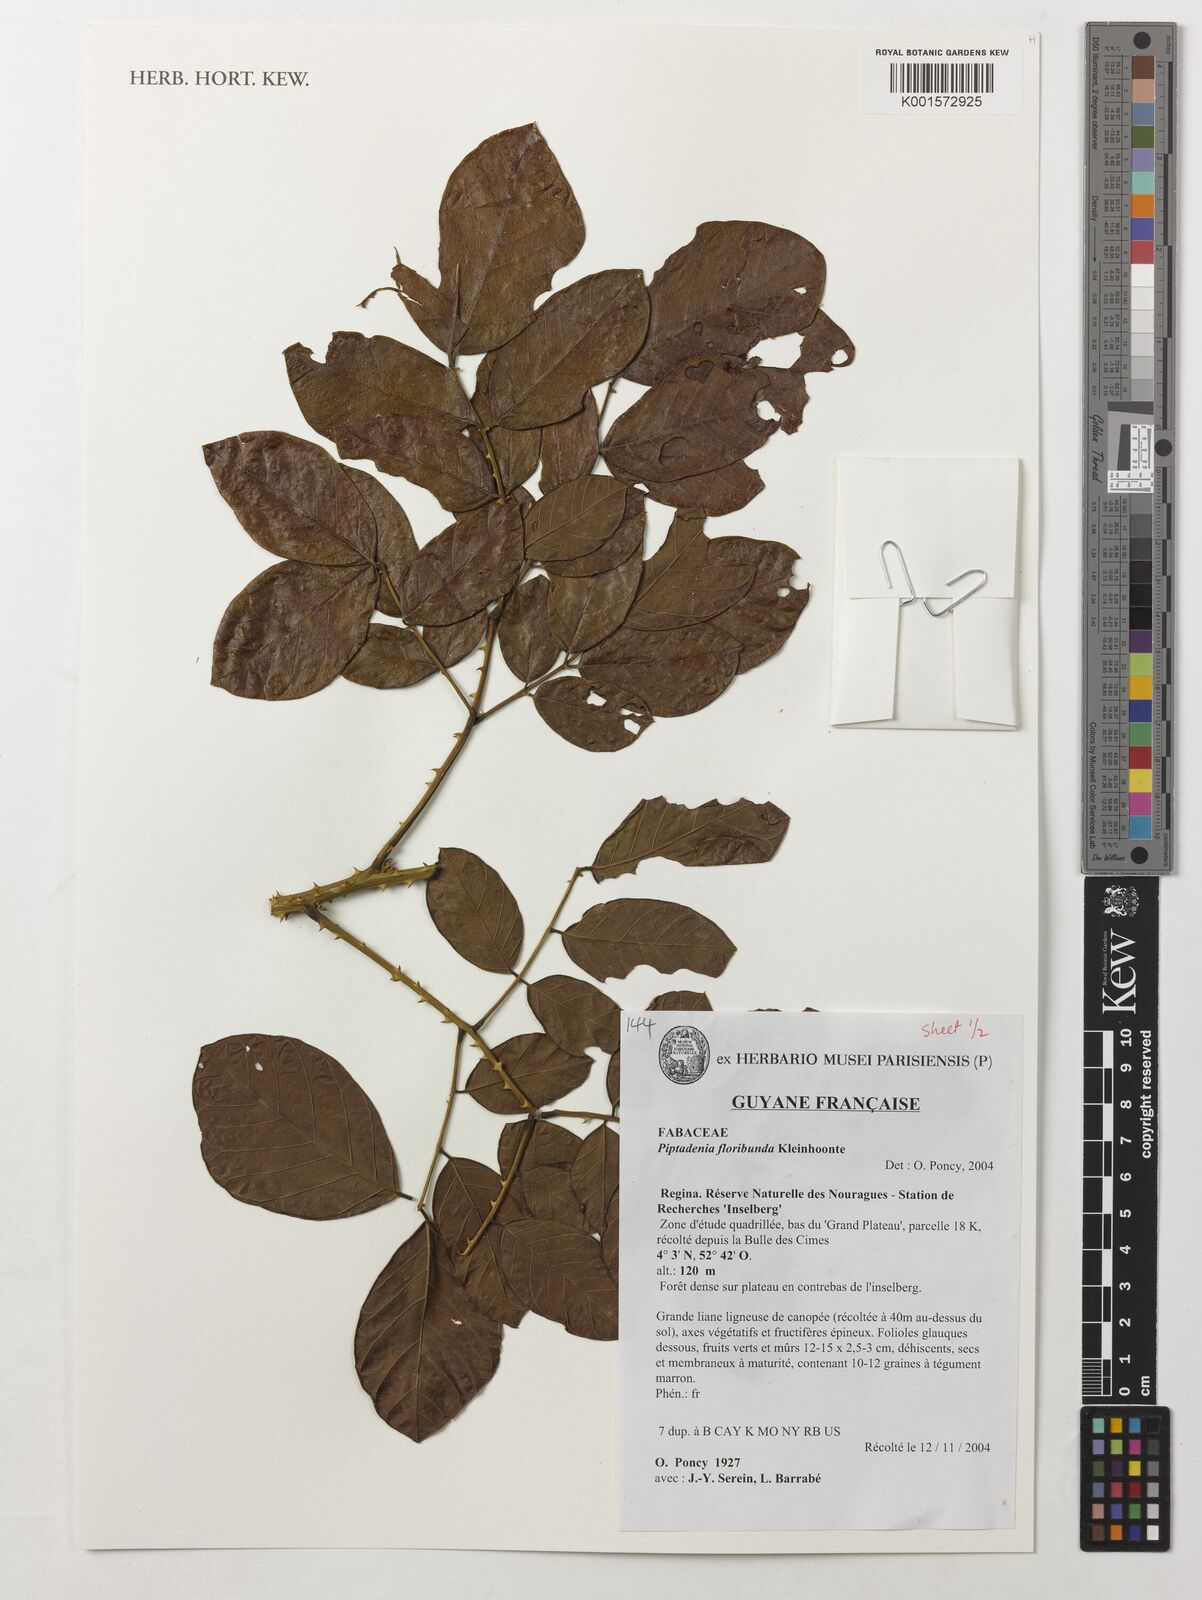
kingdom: Plantae
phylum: Tracheophyta
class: Magnoliopsida
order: Fabales
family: Fabaceae
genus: Piptadenia
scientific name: Piptadenia floribunda
